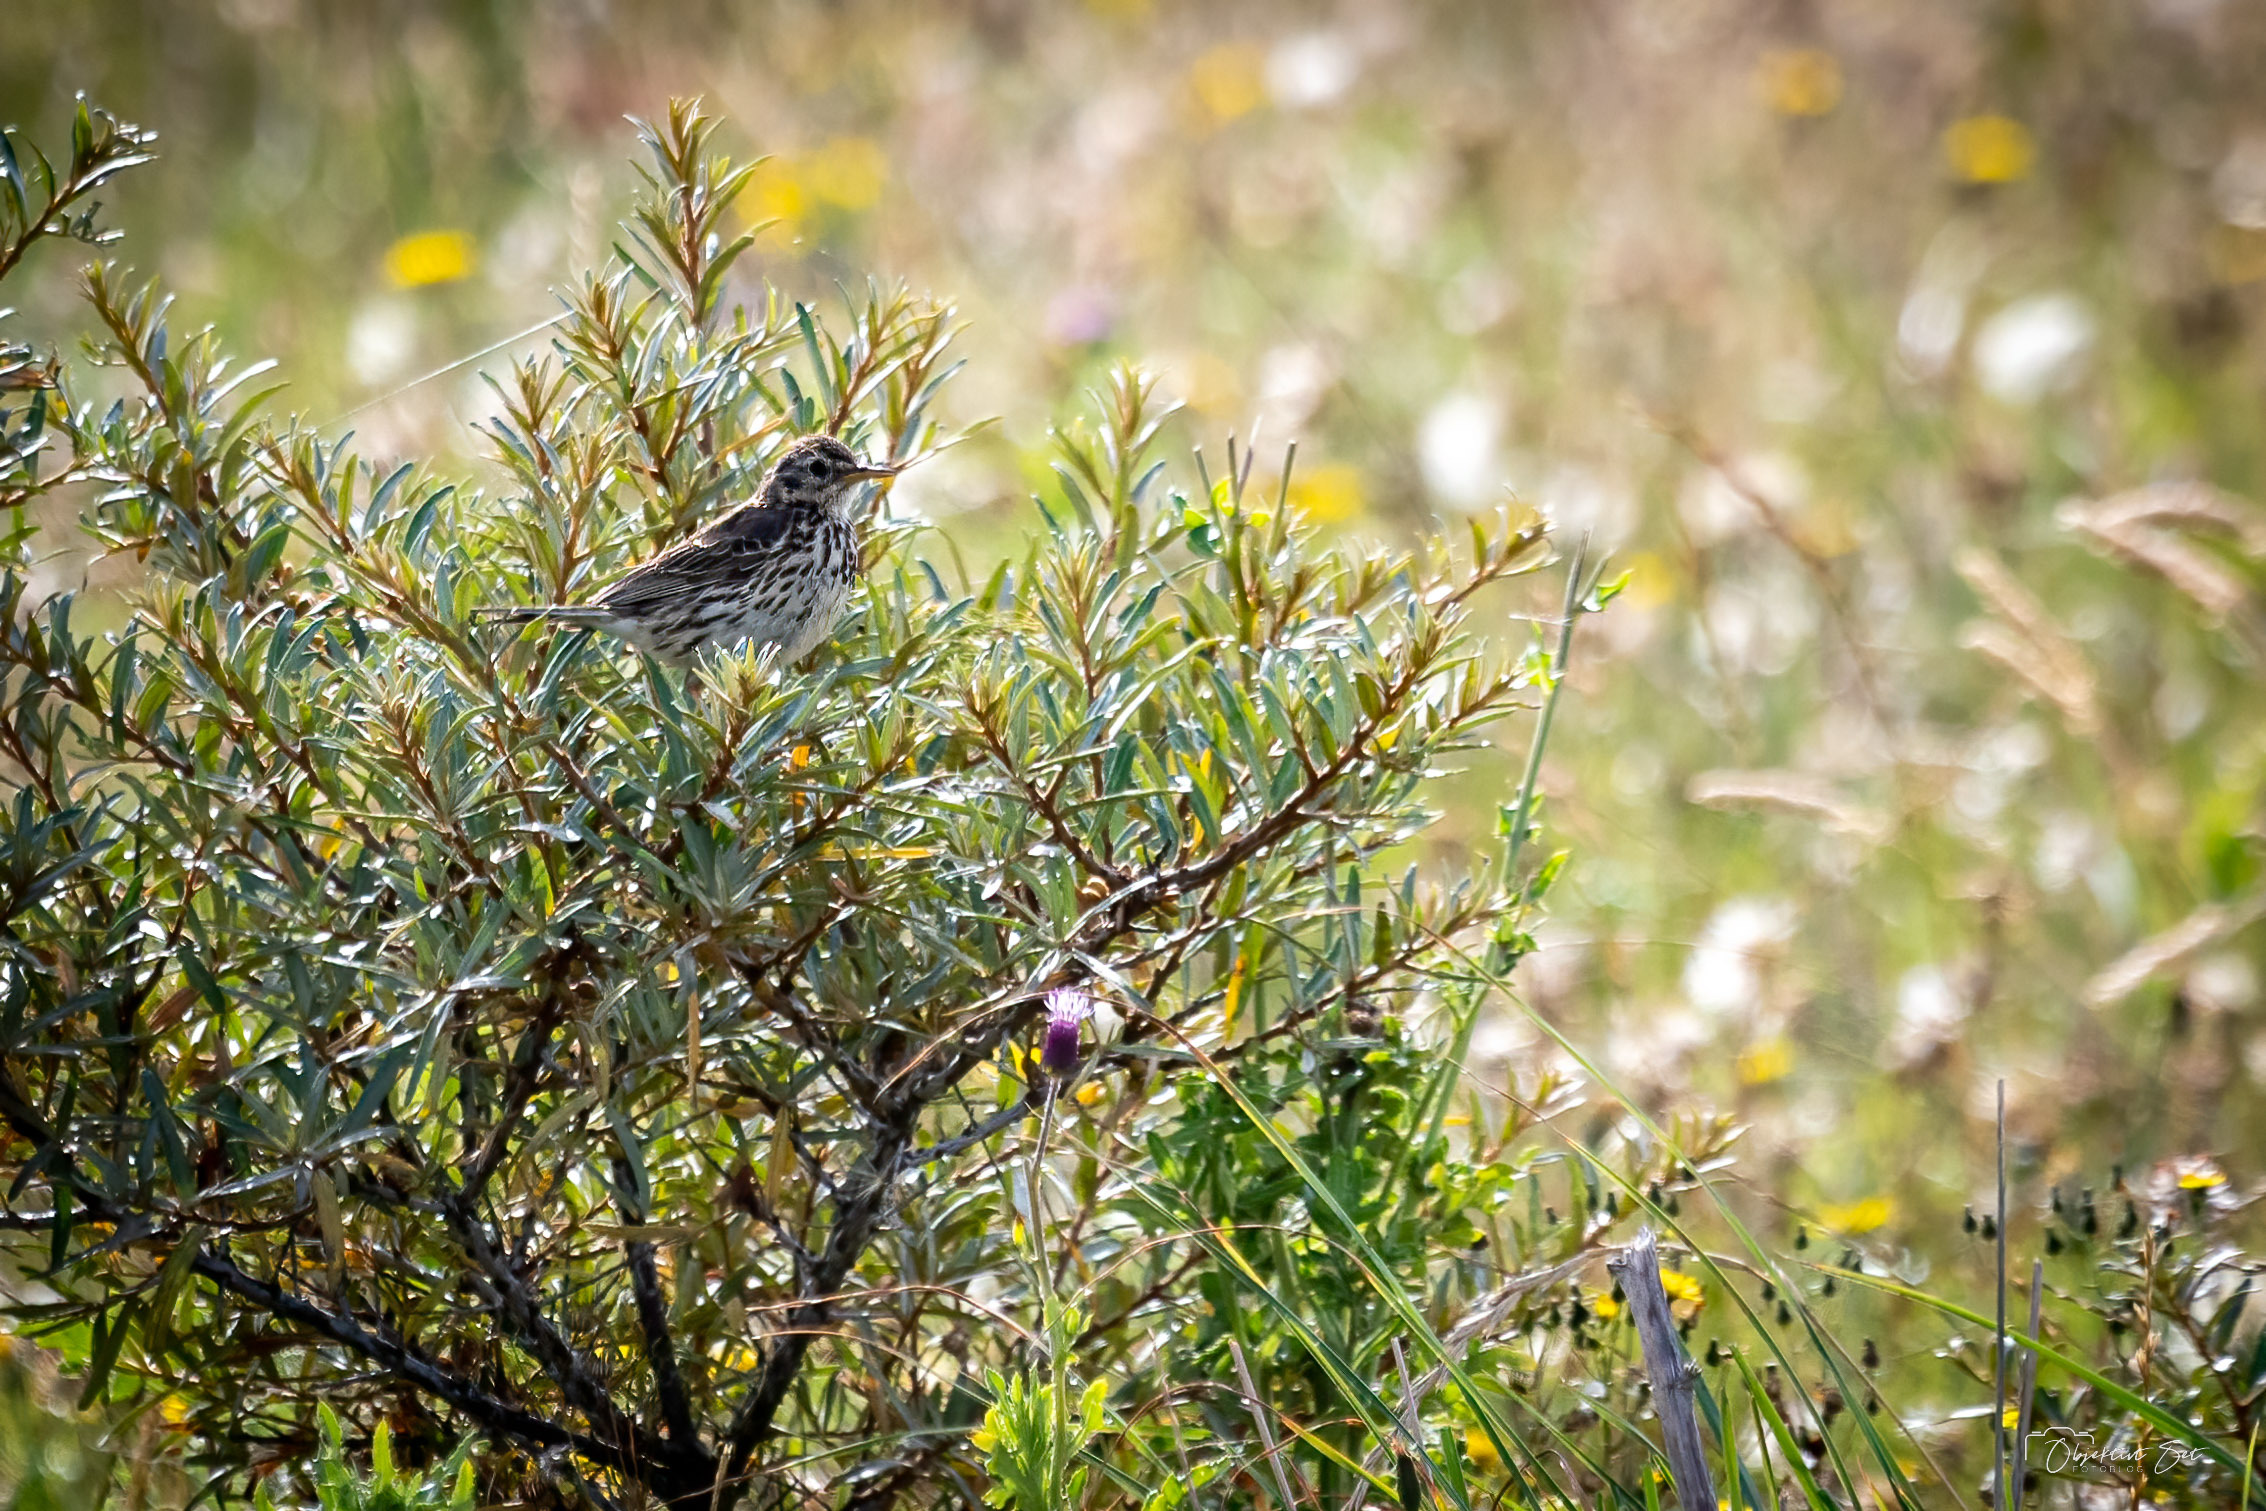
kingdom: Animalia
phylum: Chordata
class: Aves
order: Passeriformes
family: Motacillidae
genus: Anthus
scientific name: Anthus pratensis
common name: Engpiber
